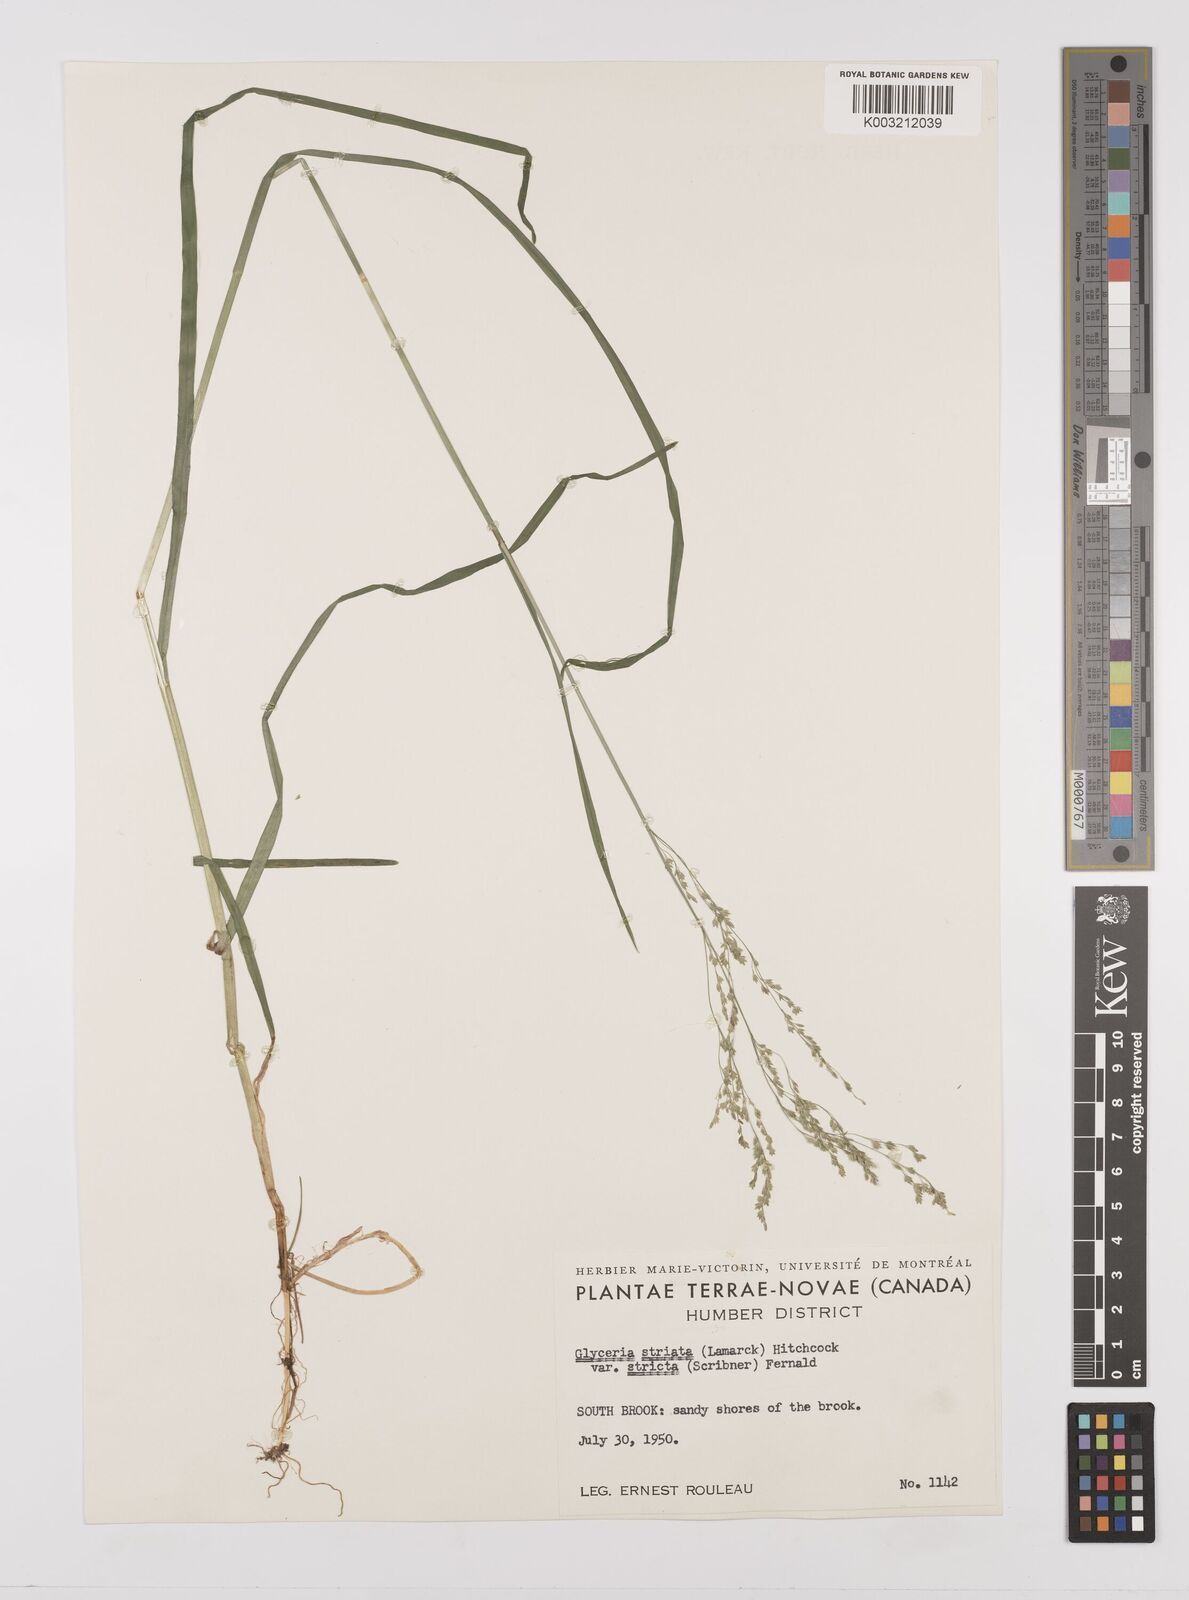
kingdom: Plantae
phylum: Tracheophyta
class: Liliopsida
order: Poales
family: Poaceae
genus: Glyceria
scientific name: Glyceria striata
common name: Fowl manna grass
